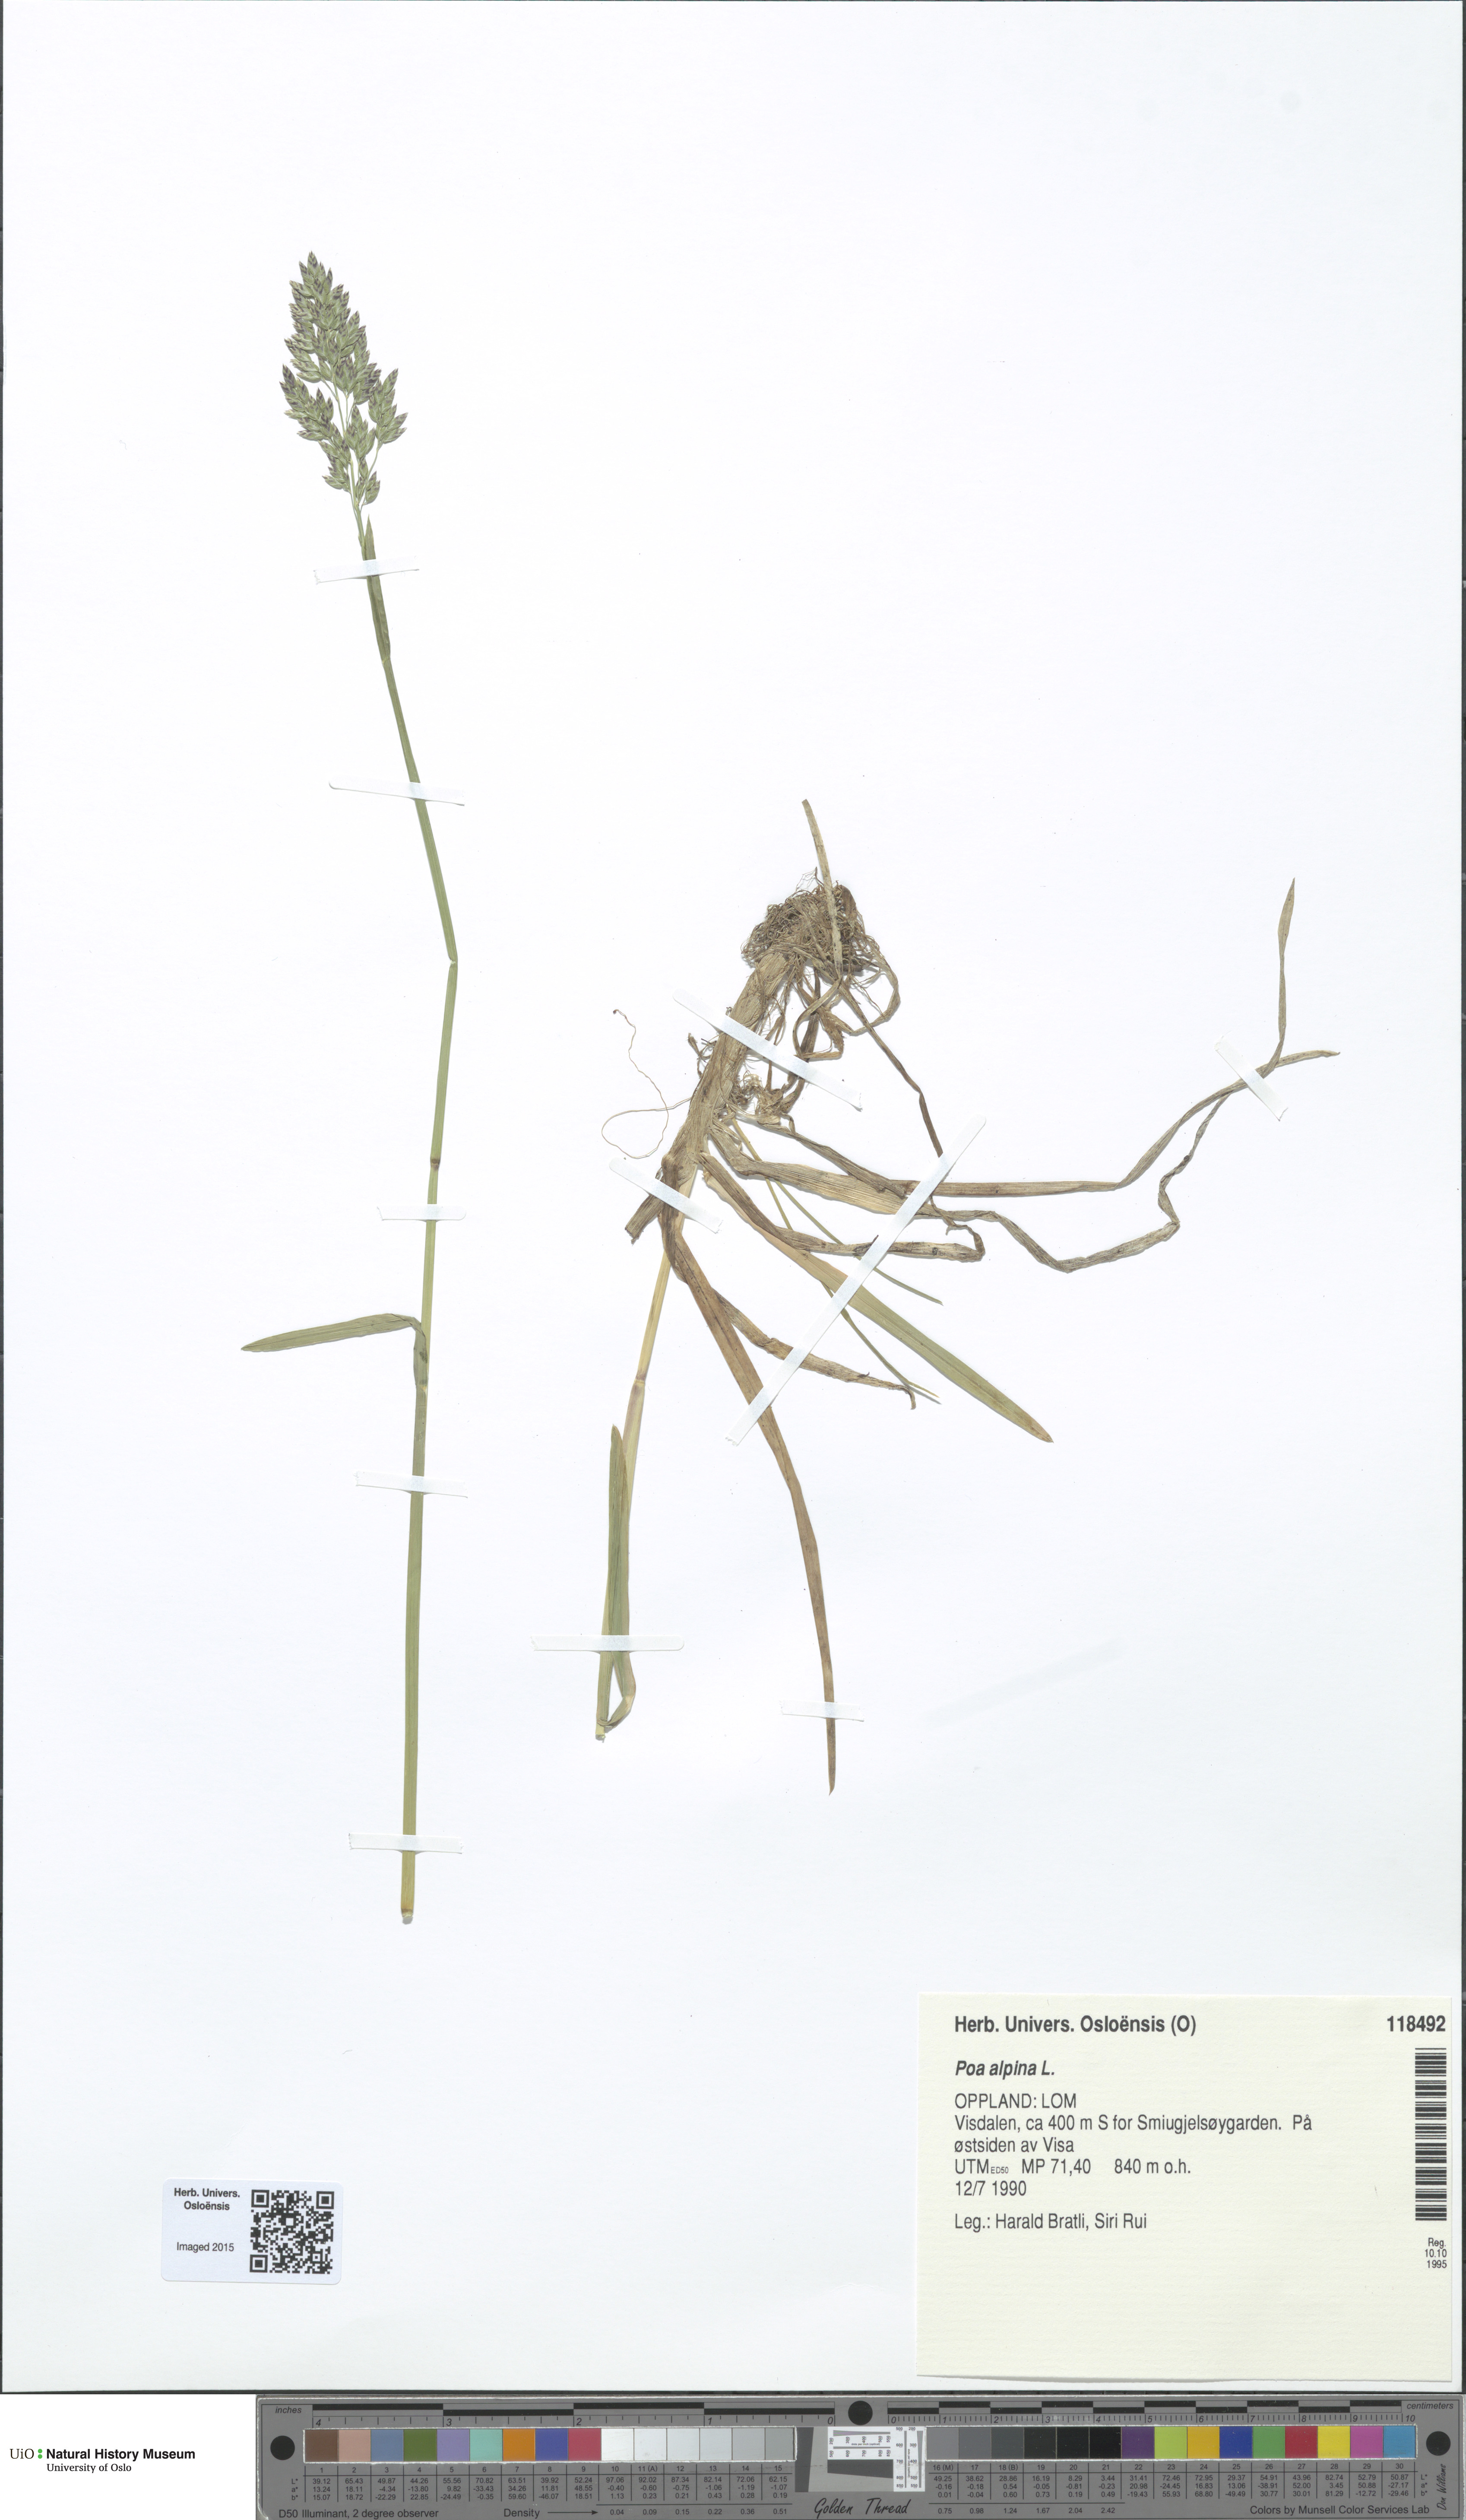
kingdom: Plantae
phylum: Tracheophyta
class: Liliopsida
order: Poales
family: Poaceae
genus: Poa
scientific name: Poa alpina
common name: Alpine bluegrass
